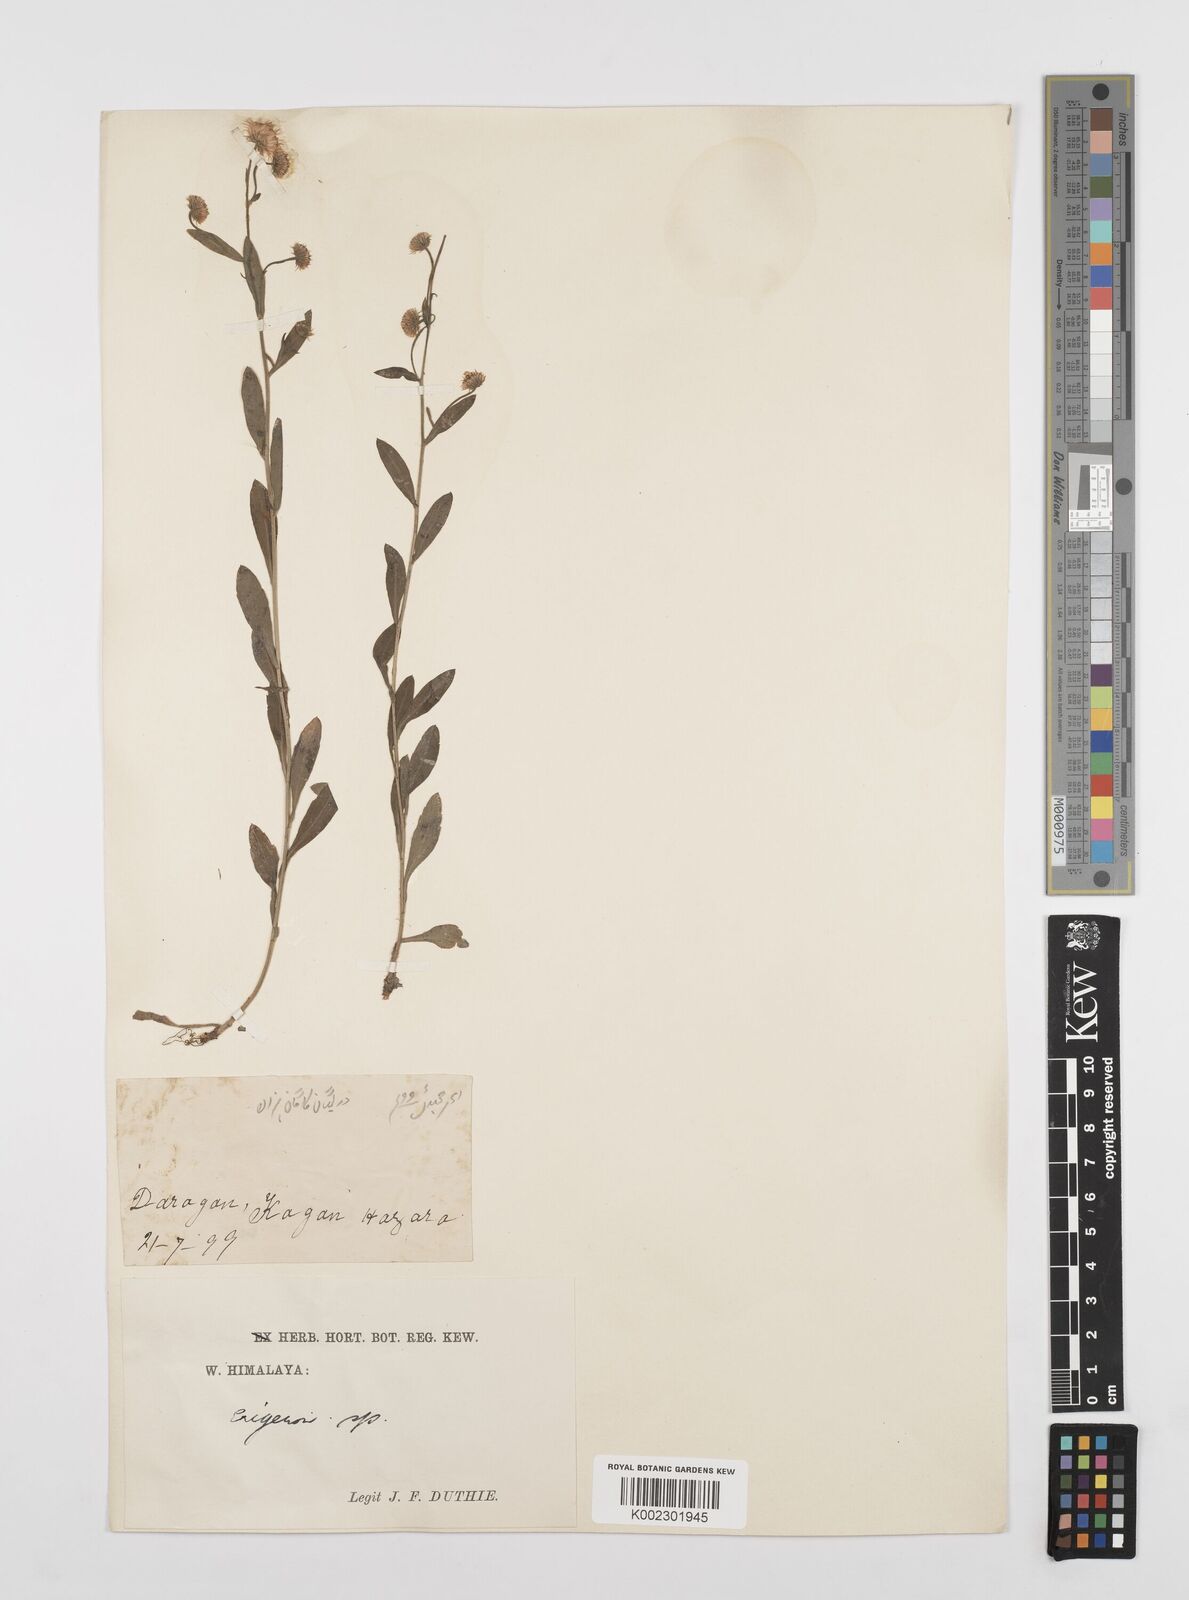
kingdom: Plantae
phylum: Tracheophyta
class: Magnoliopsida
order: Asterales
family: Asteraceae
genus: Erigeron
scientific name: Erigeron alpinus
